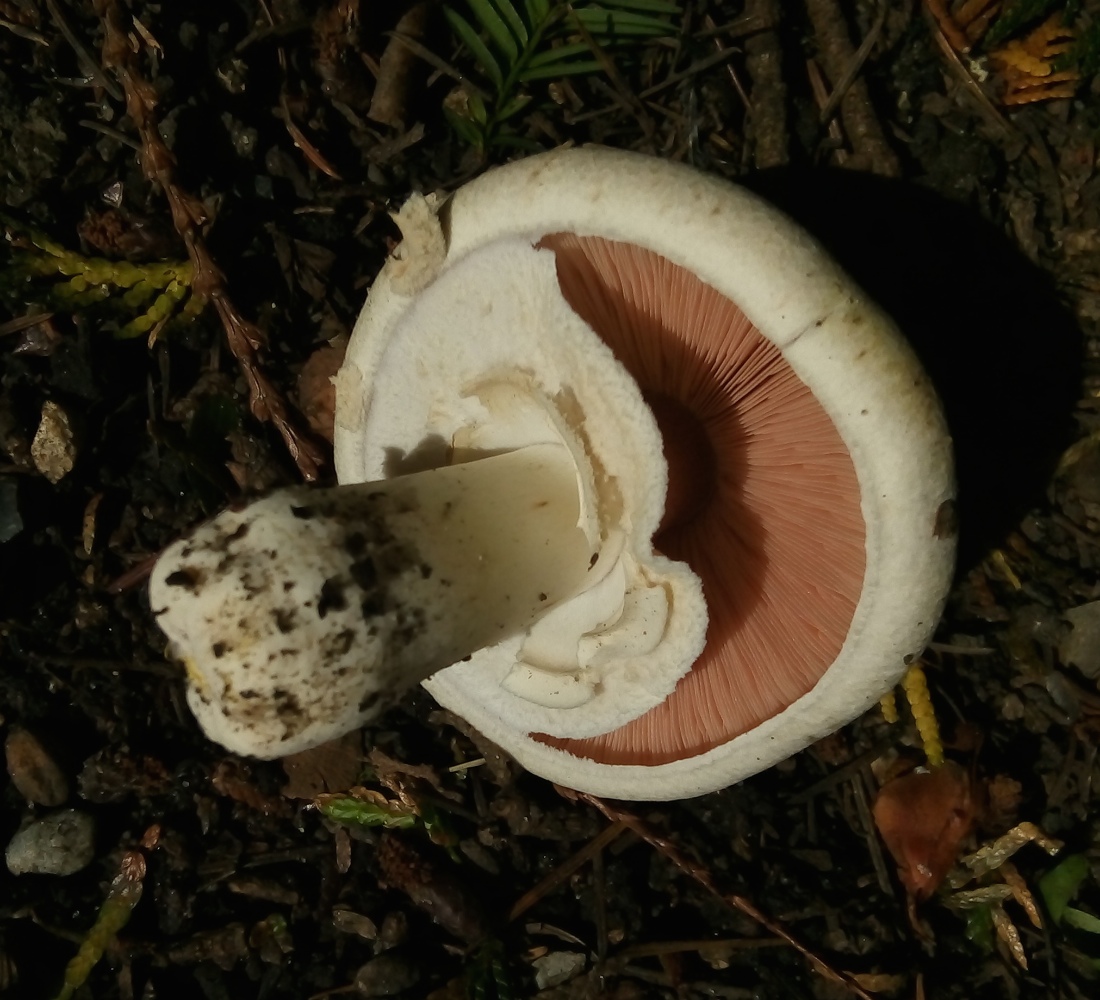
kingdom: Fungi
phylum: Basidiomycota
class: Agaricomycetes
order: Agaricales
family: Agaricaceae
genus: Agaricus
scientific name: Agaricus xanthodermus
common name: karbol-champignon
